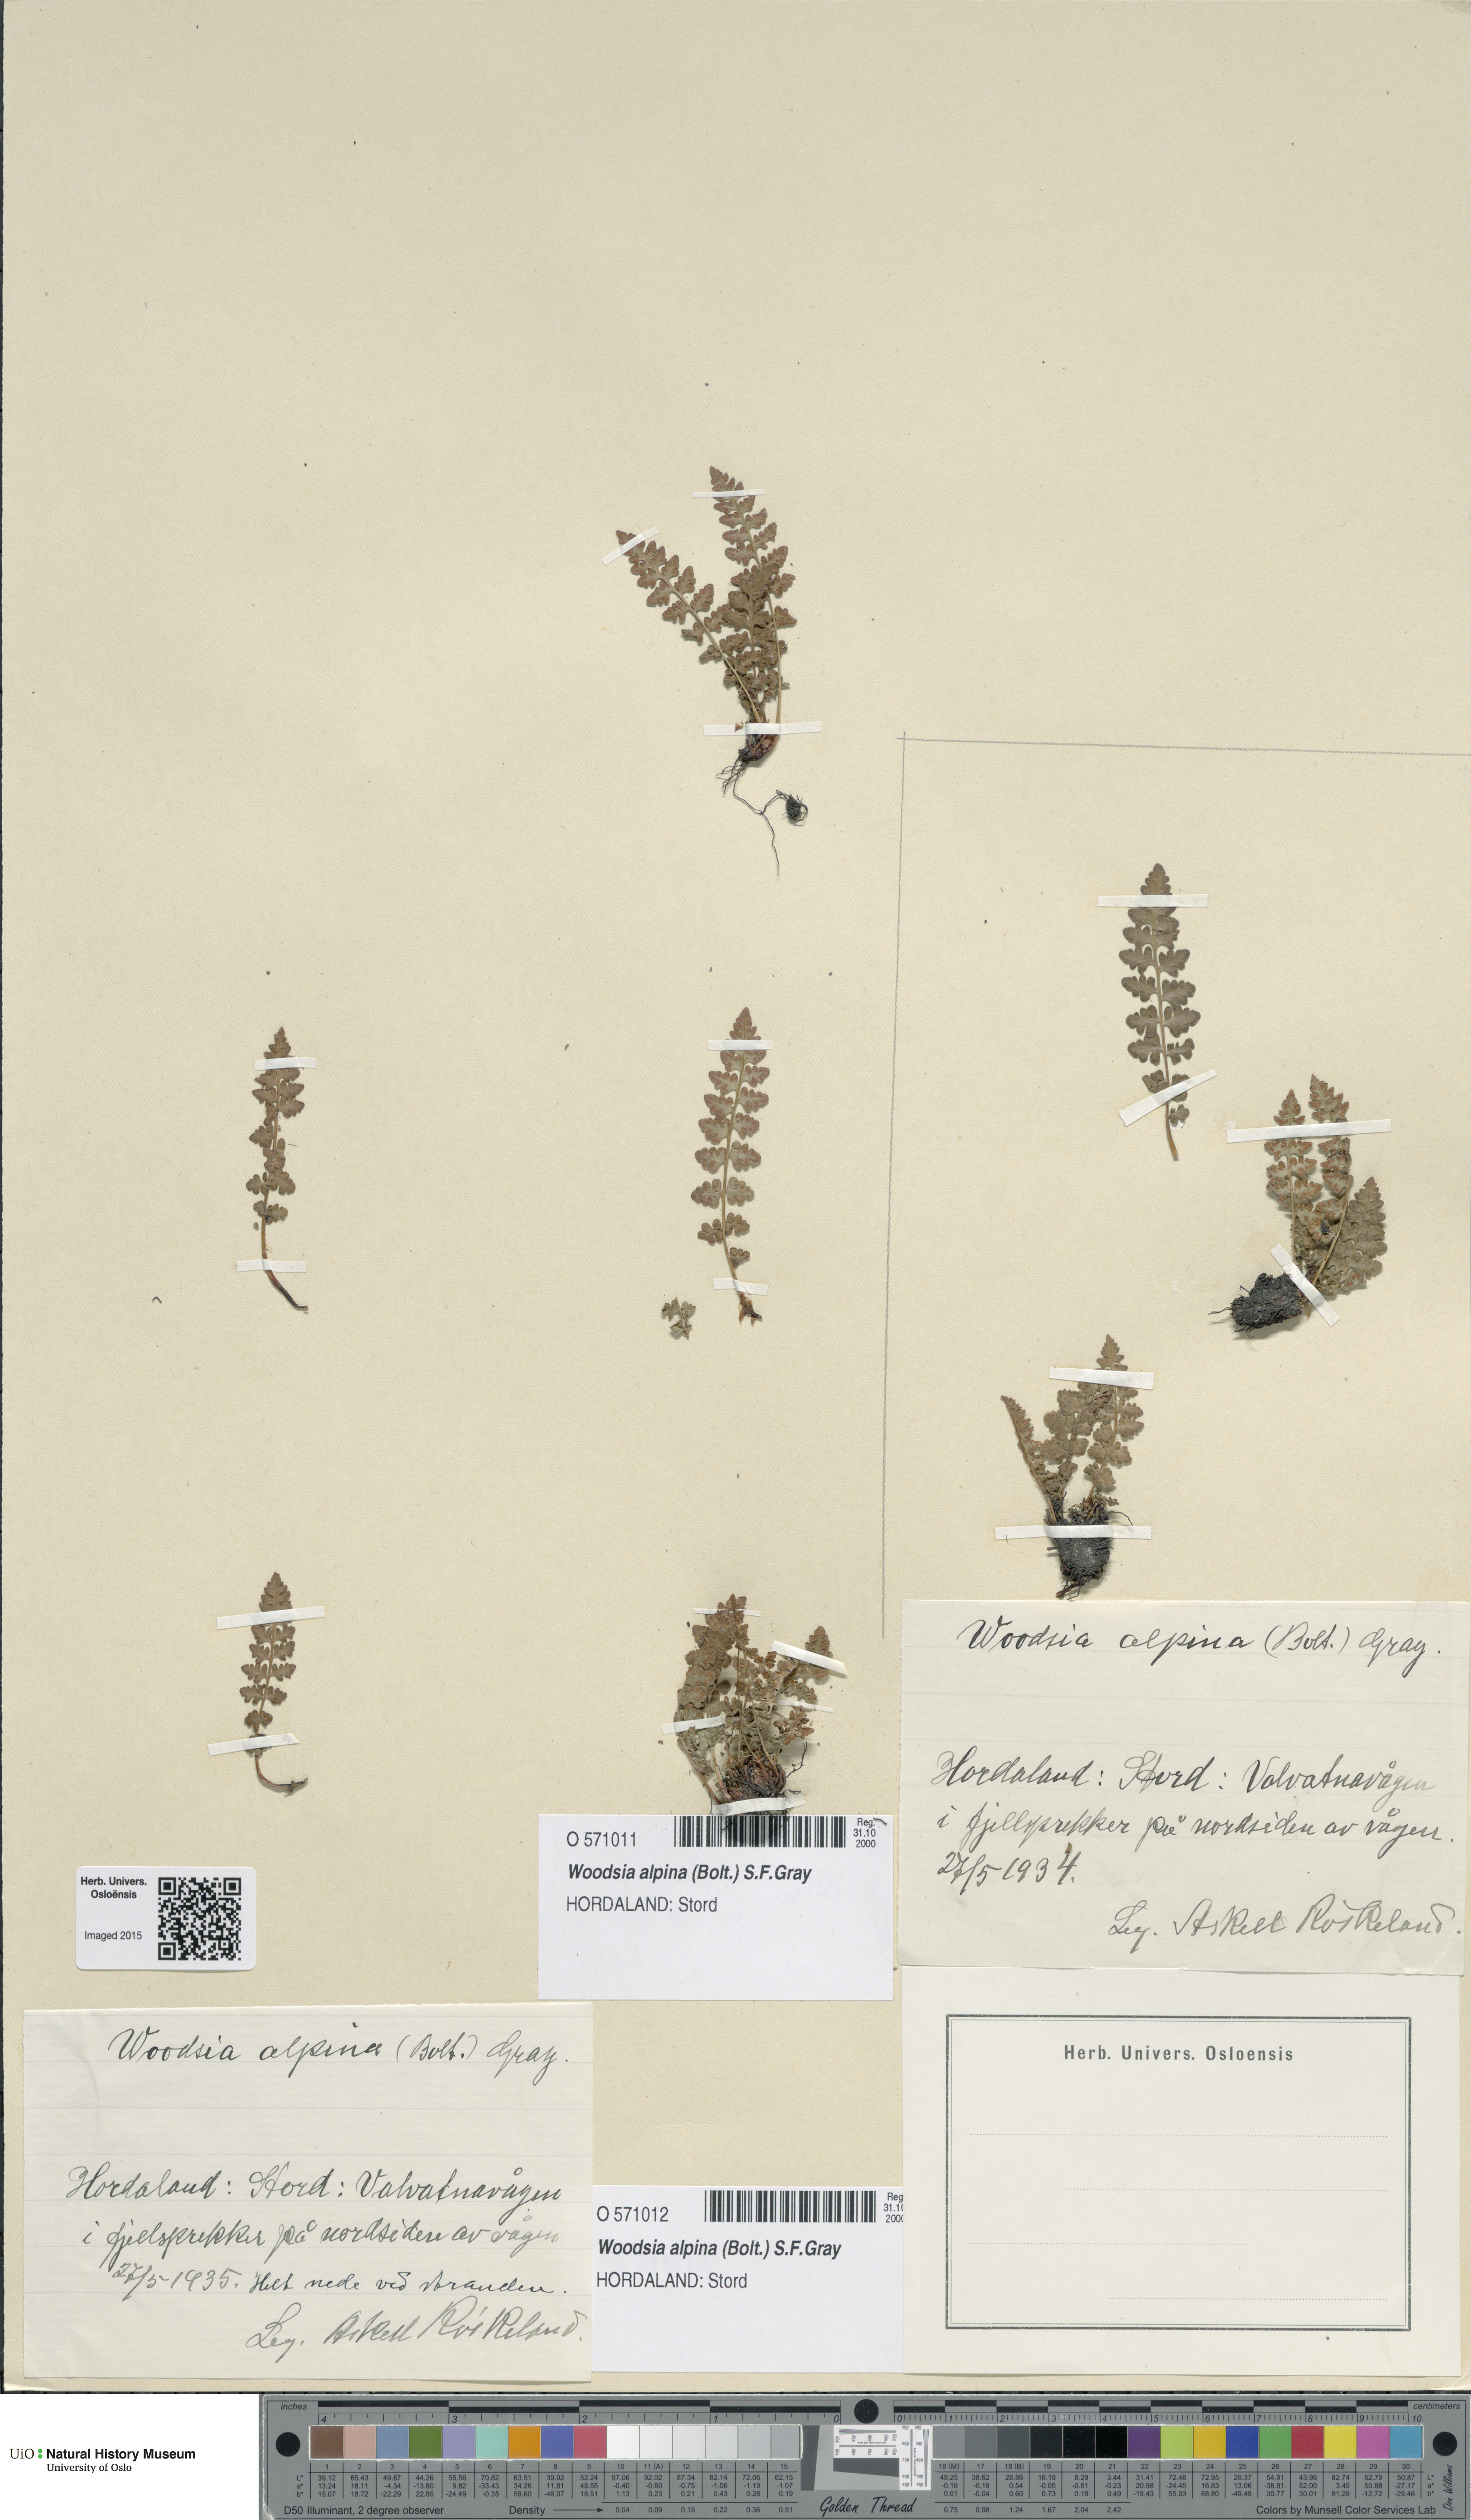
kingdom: Plantae
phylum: Tracheophyta
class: Polypodiopsida
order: Polypodiales
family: Woodsiaceae
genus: Woodsia
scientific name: Woodsia alpina
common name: Alpine woodsia
